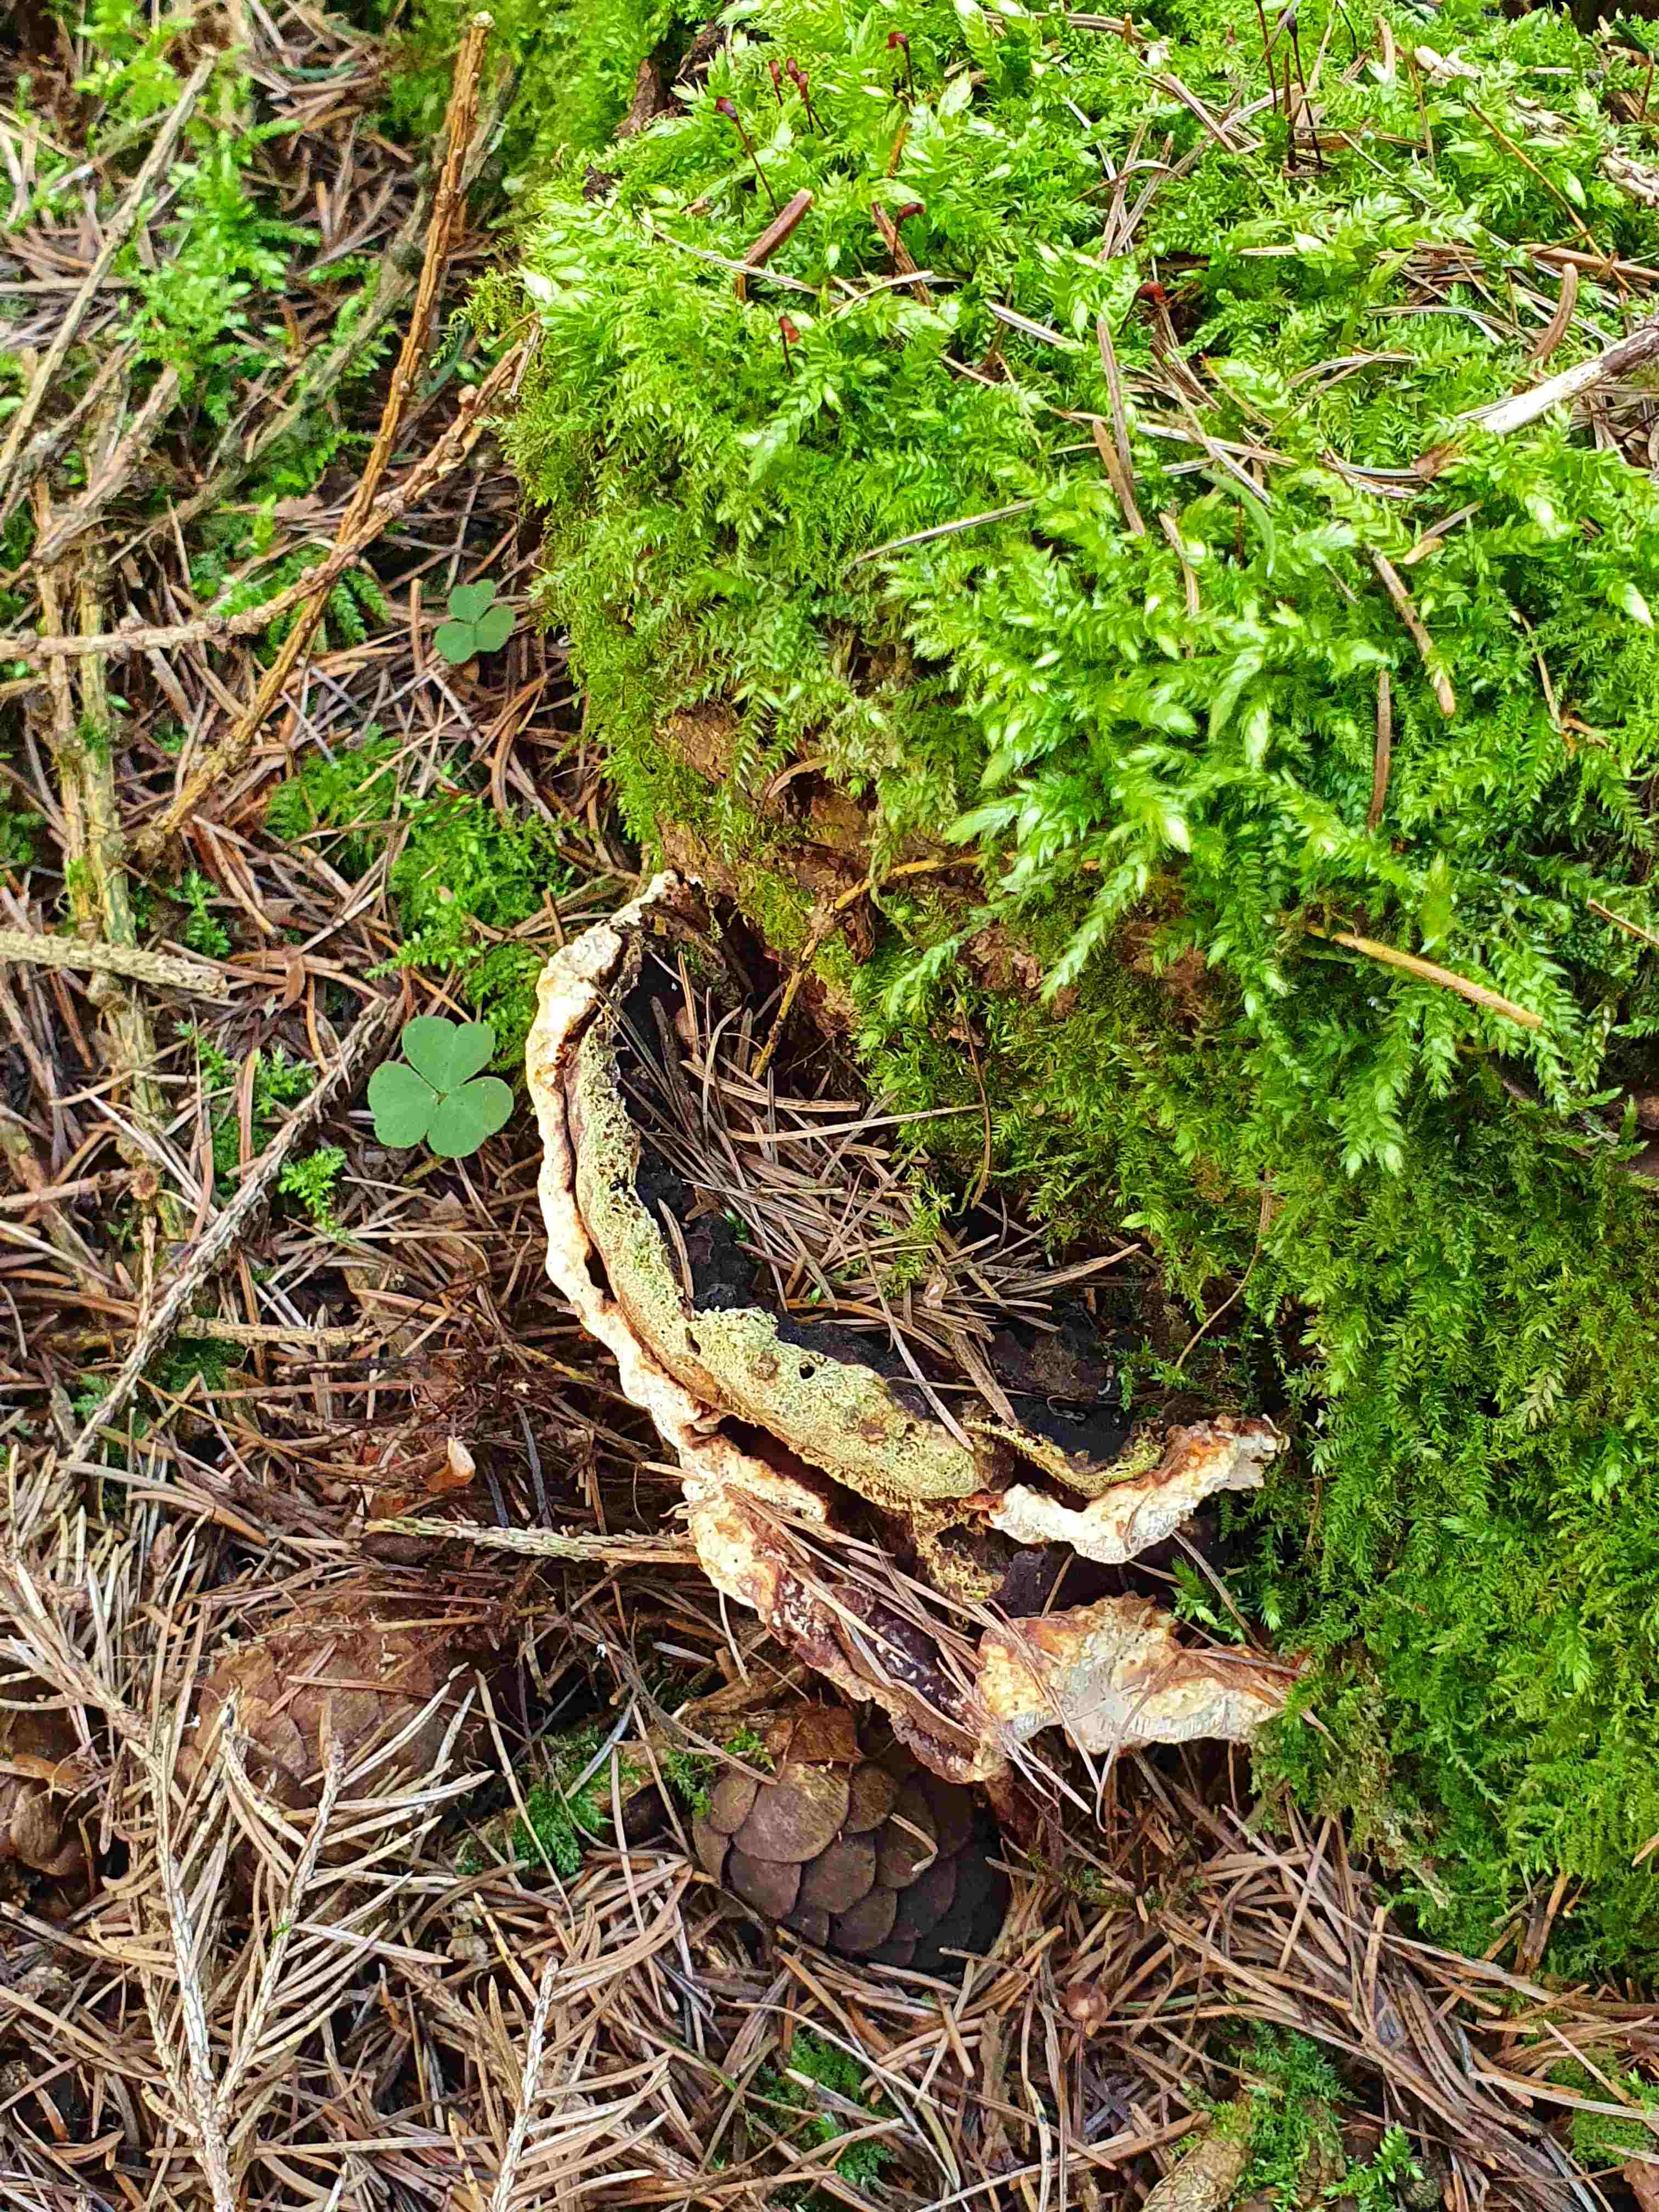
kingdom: Fungi
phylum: Basidiomycota
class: Agaricomycetes
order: Russulales
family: Bondarzewiaceae
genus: Heterobasidion
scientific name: Heterobasidion
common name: rodfordærver
